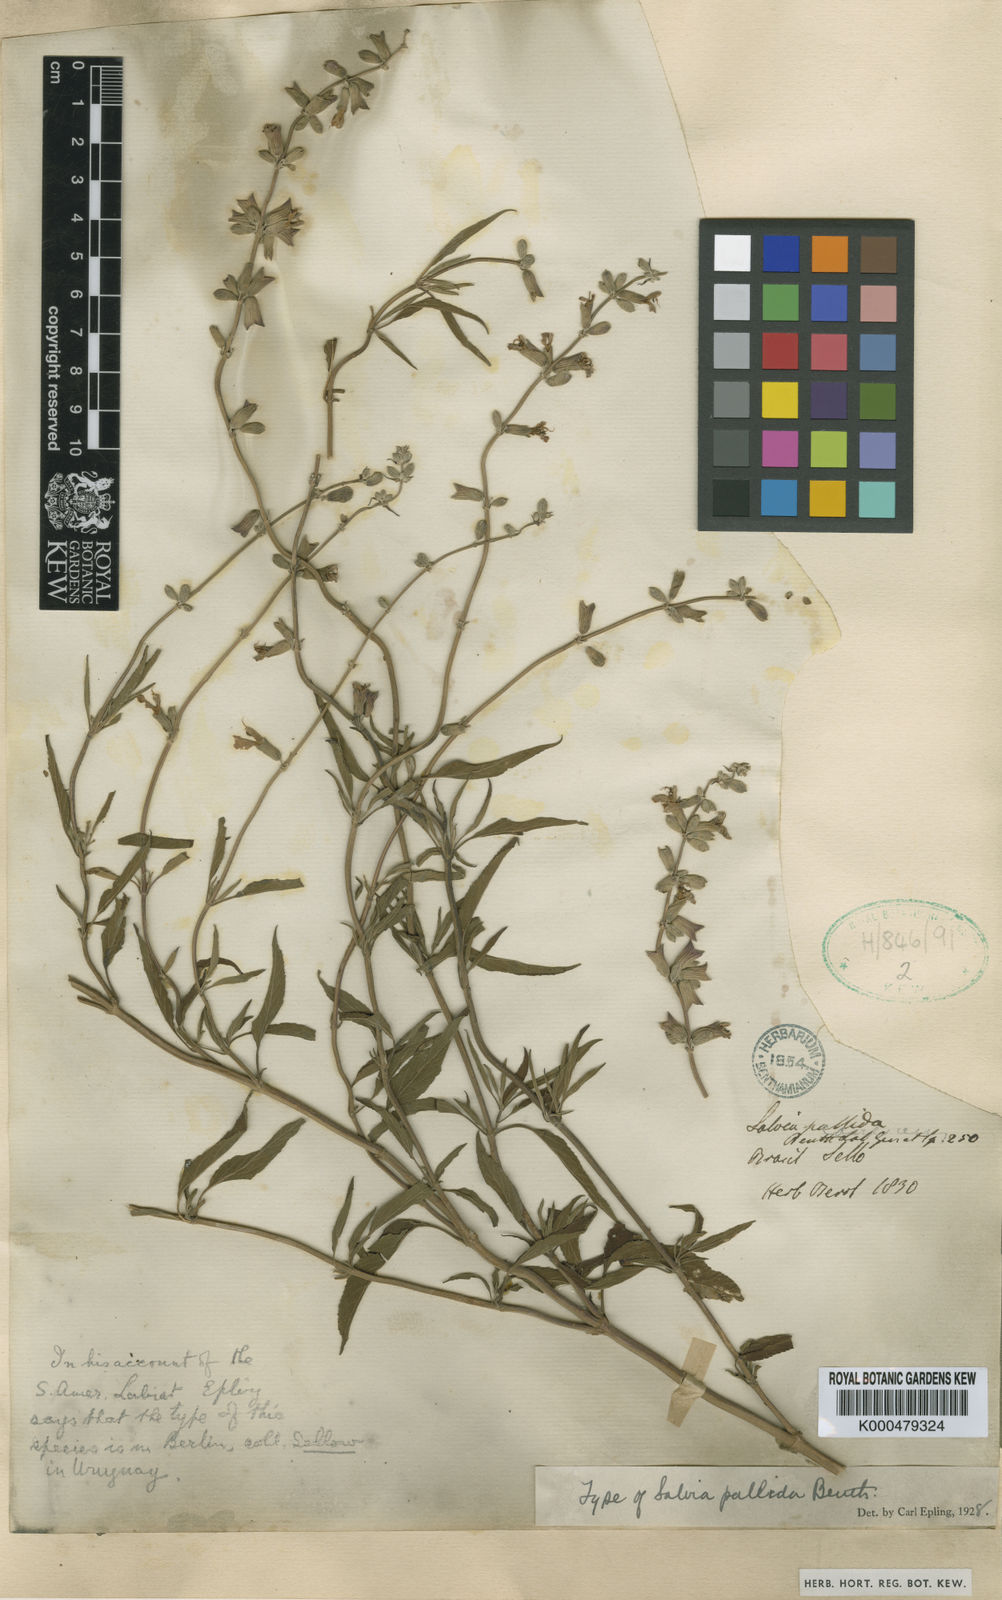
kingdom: Plantae
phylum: Tracheophyta
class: Magnoliopsida
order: Lamiales
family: Lamiaceae
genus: Salvia
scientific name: Salvia pallida
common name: Pale sage
